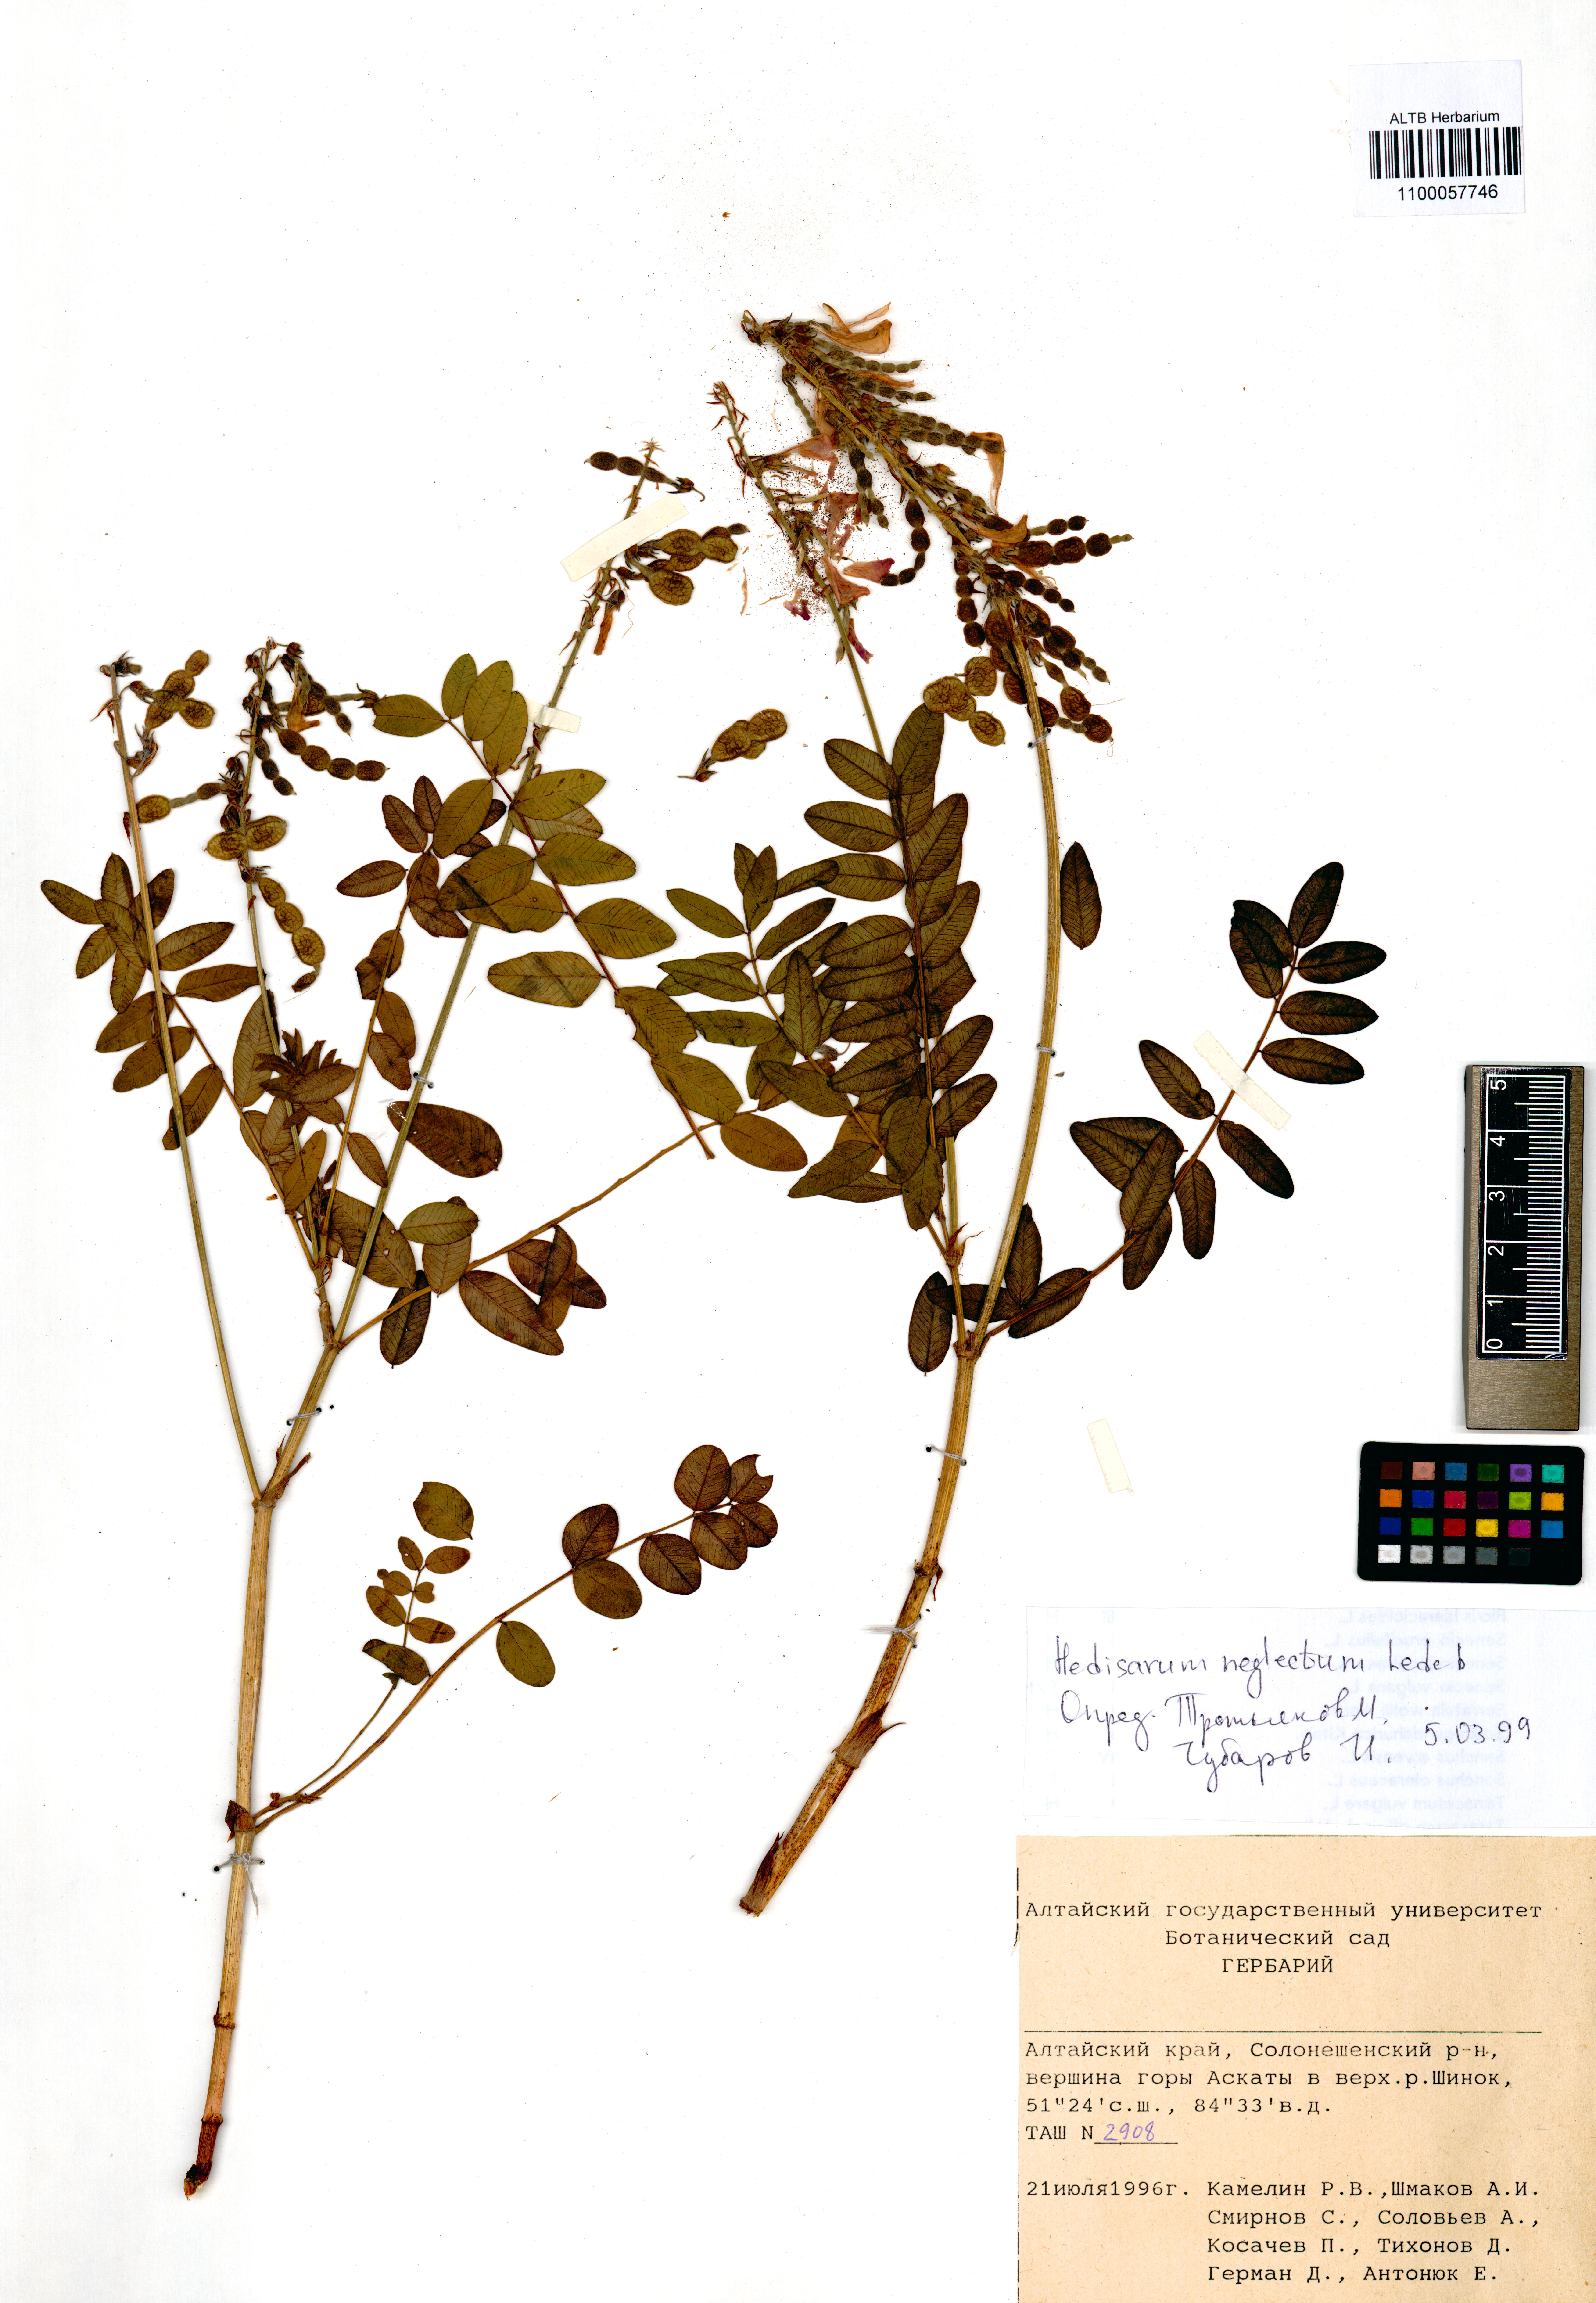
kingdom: Plantae
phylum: Tracheophyta
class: Magnoliopsida
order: Fabales
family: Fabaceae
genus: Hedysarum
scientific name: Hedysarum neglectum
